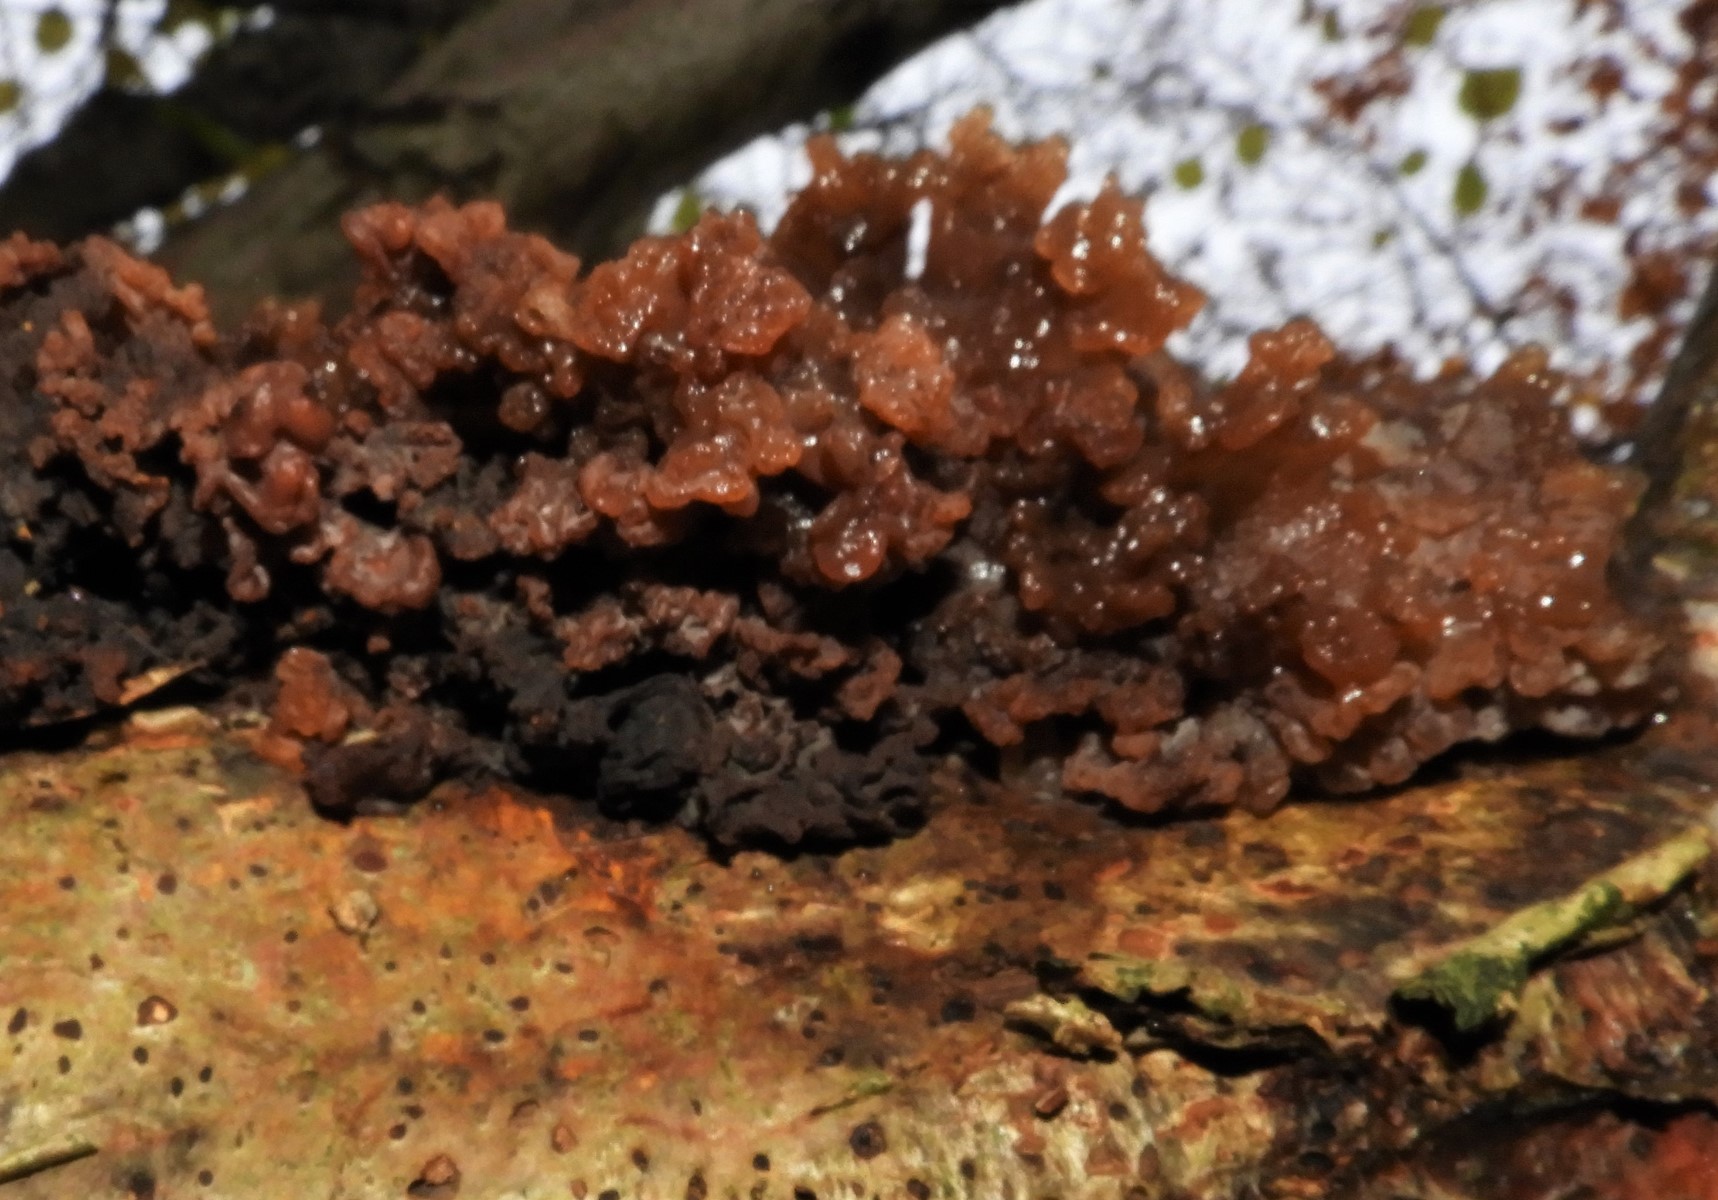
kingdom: Fungi
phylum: Basidiomycota
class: Tremellomycetes
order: Tremellales
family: Tremellaceae
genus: Phaeotremella
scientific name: Phaeotremella frondosa
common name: kæmpe-bævresvamp
